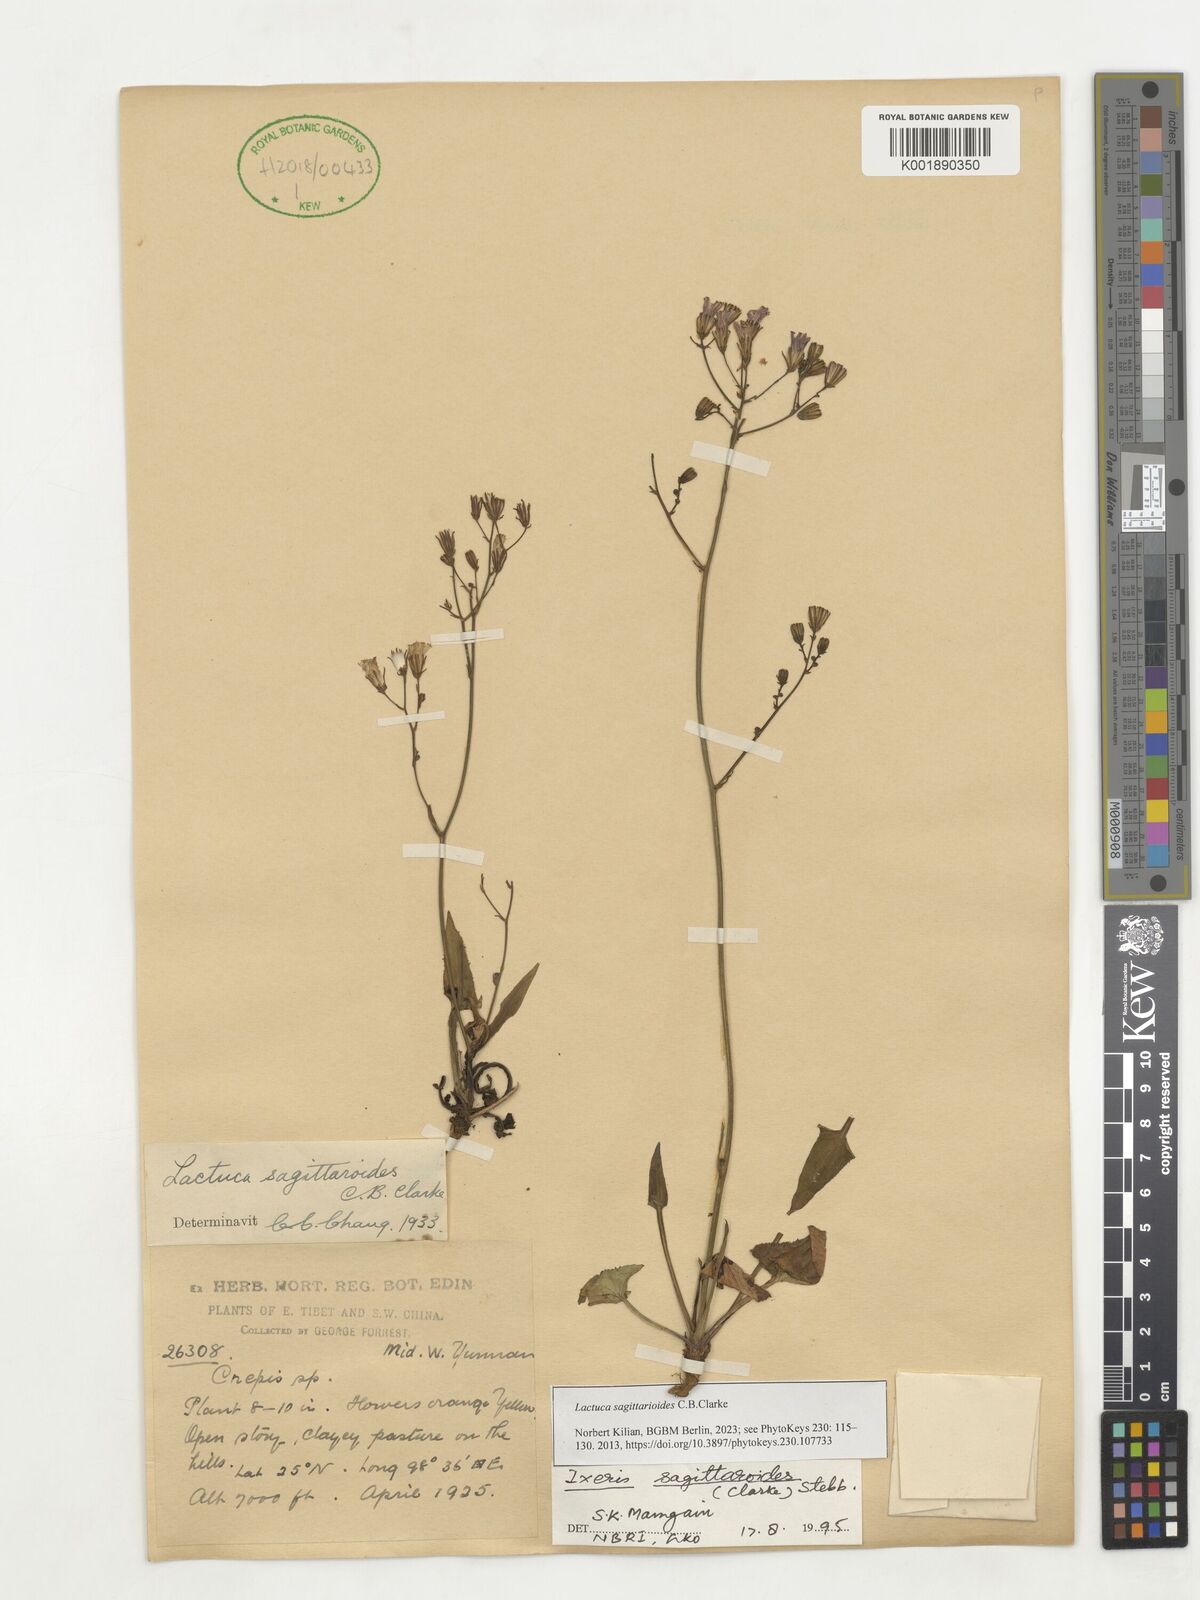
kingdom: Plantae
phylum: Tracheophyta
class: Magnoliopsida
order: Asterales
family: Asteraceae
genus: Ixeridium
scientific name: Ixeridium sagittarioides
